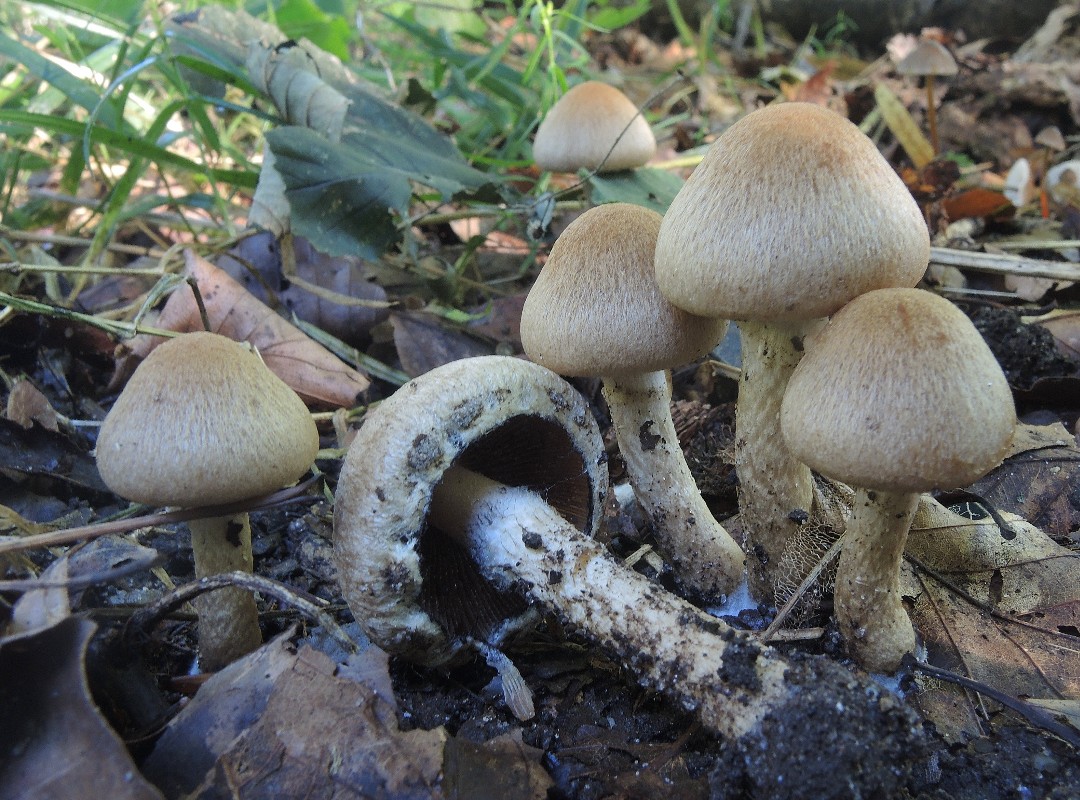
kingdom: Fungi
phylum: Basidiomycota
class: Agaricomycetes
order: Agaricales
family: Psathyrellaceae
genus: Lacrymaria
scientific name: Lacrymaria lacrymabunda
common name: grædende mørkhat
